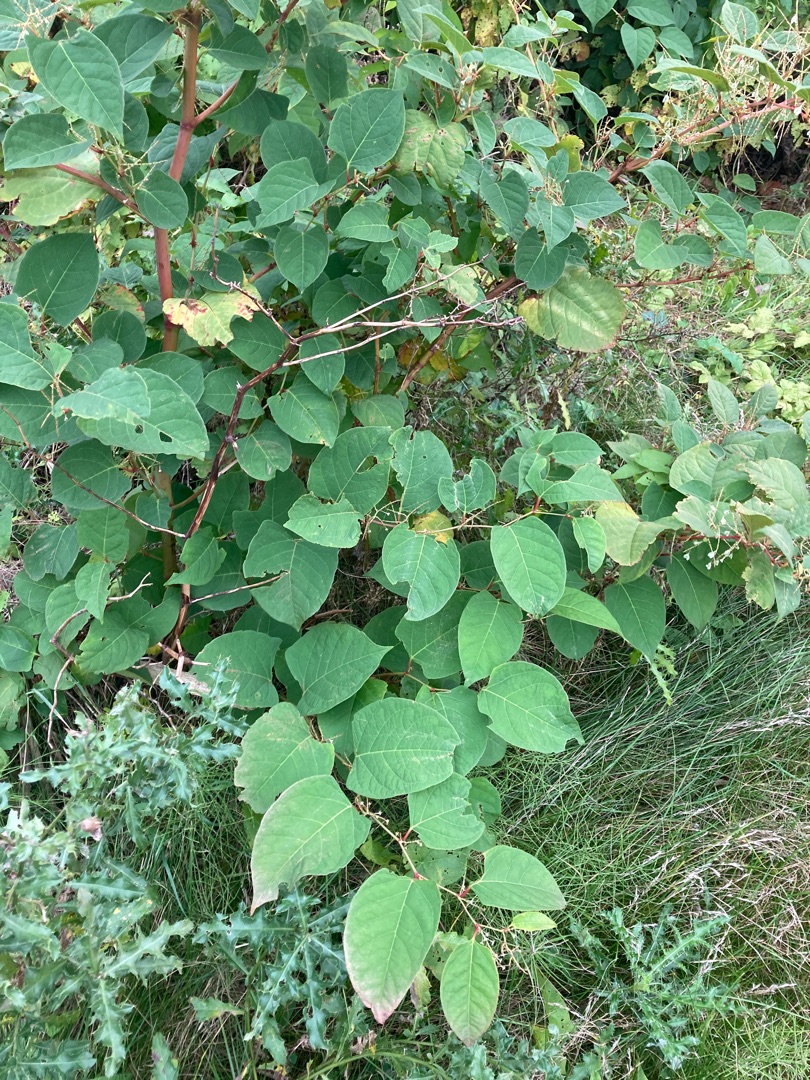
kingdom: Plantae
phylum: Tracheophyta
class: Magnoliopsida
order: Caryophyllales
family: Polygonaceae
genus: Reynoutria
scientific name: Reynoutria japonica
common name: Japan-pileurt
